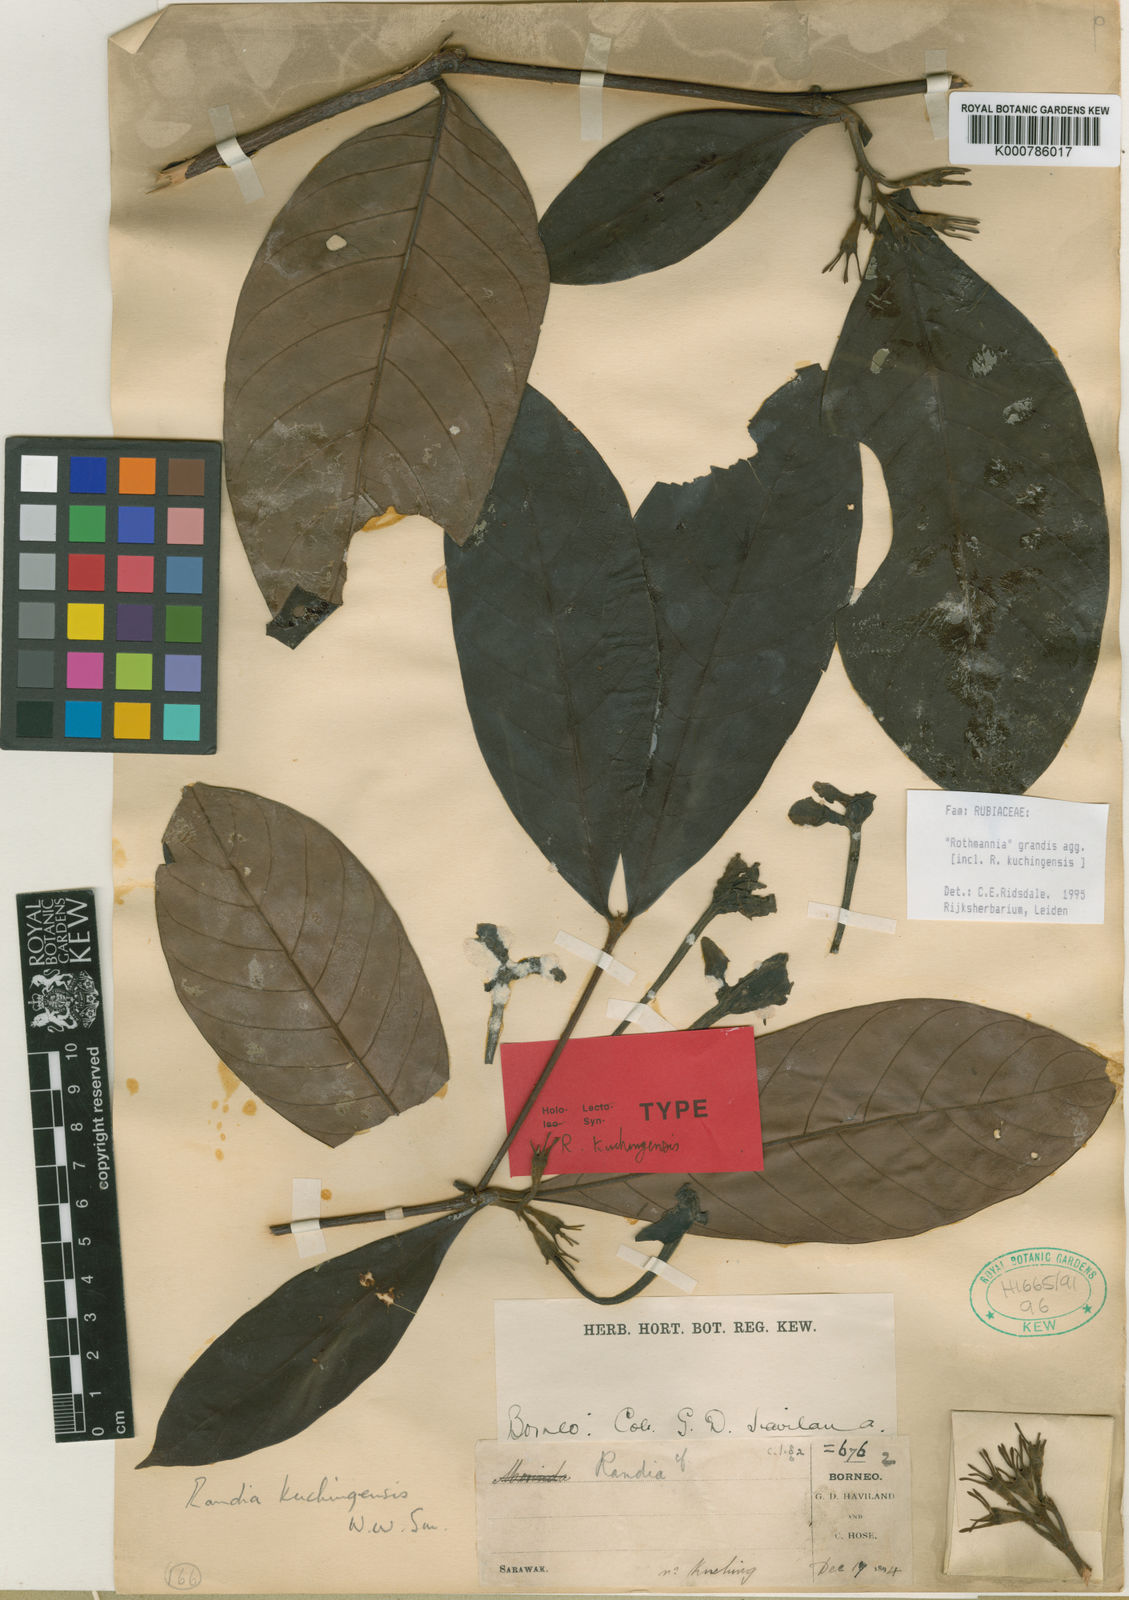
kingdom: Plantae
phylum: Tracheophyta
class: Magnoliopsida
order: Gentianales
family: Rubiaceae
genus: Ridsdalea
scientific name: Ridsdalea grandis
